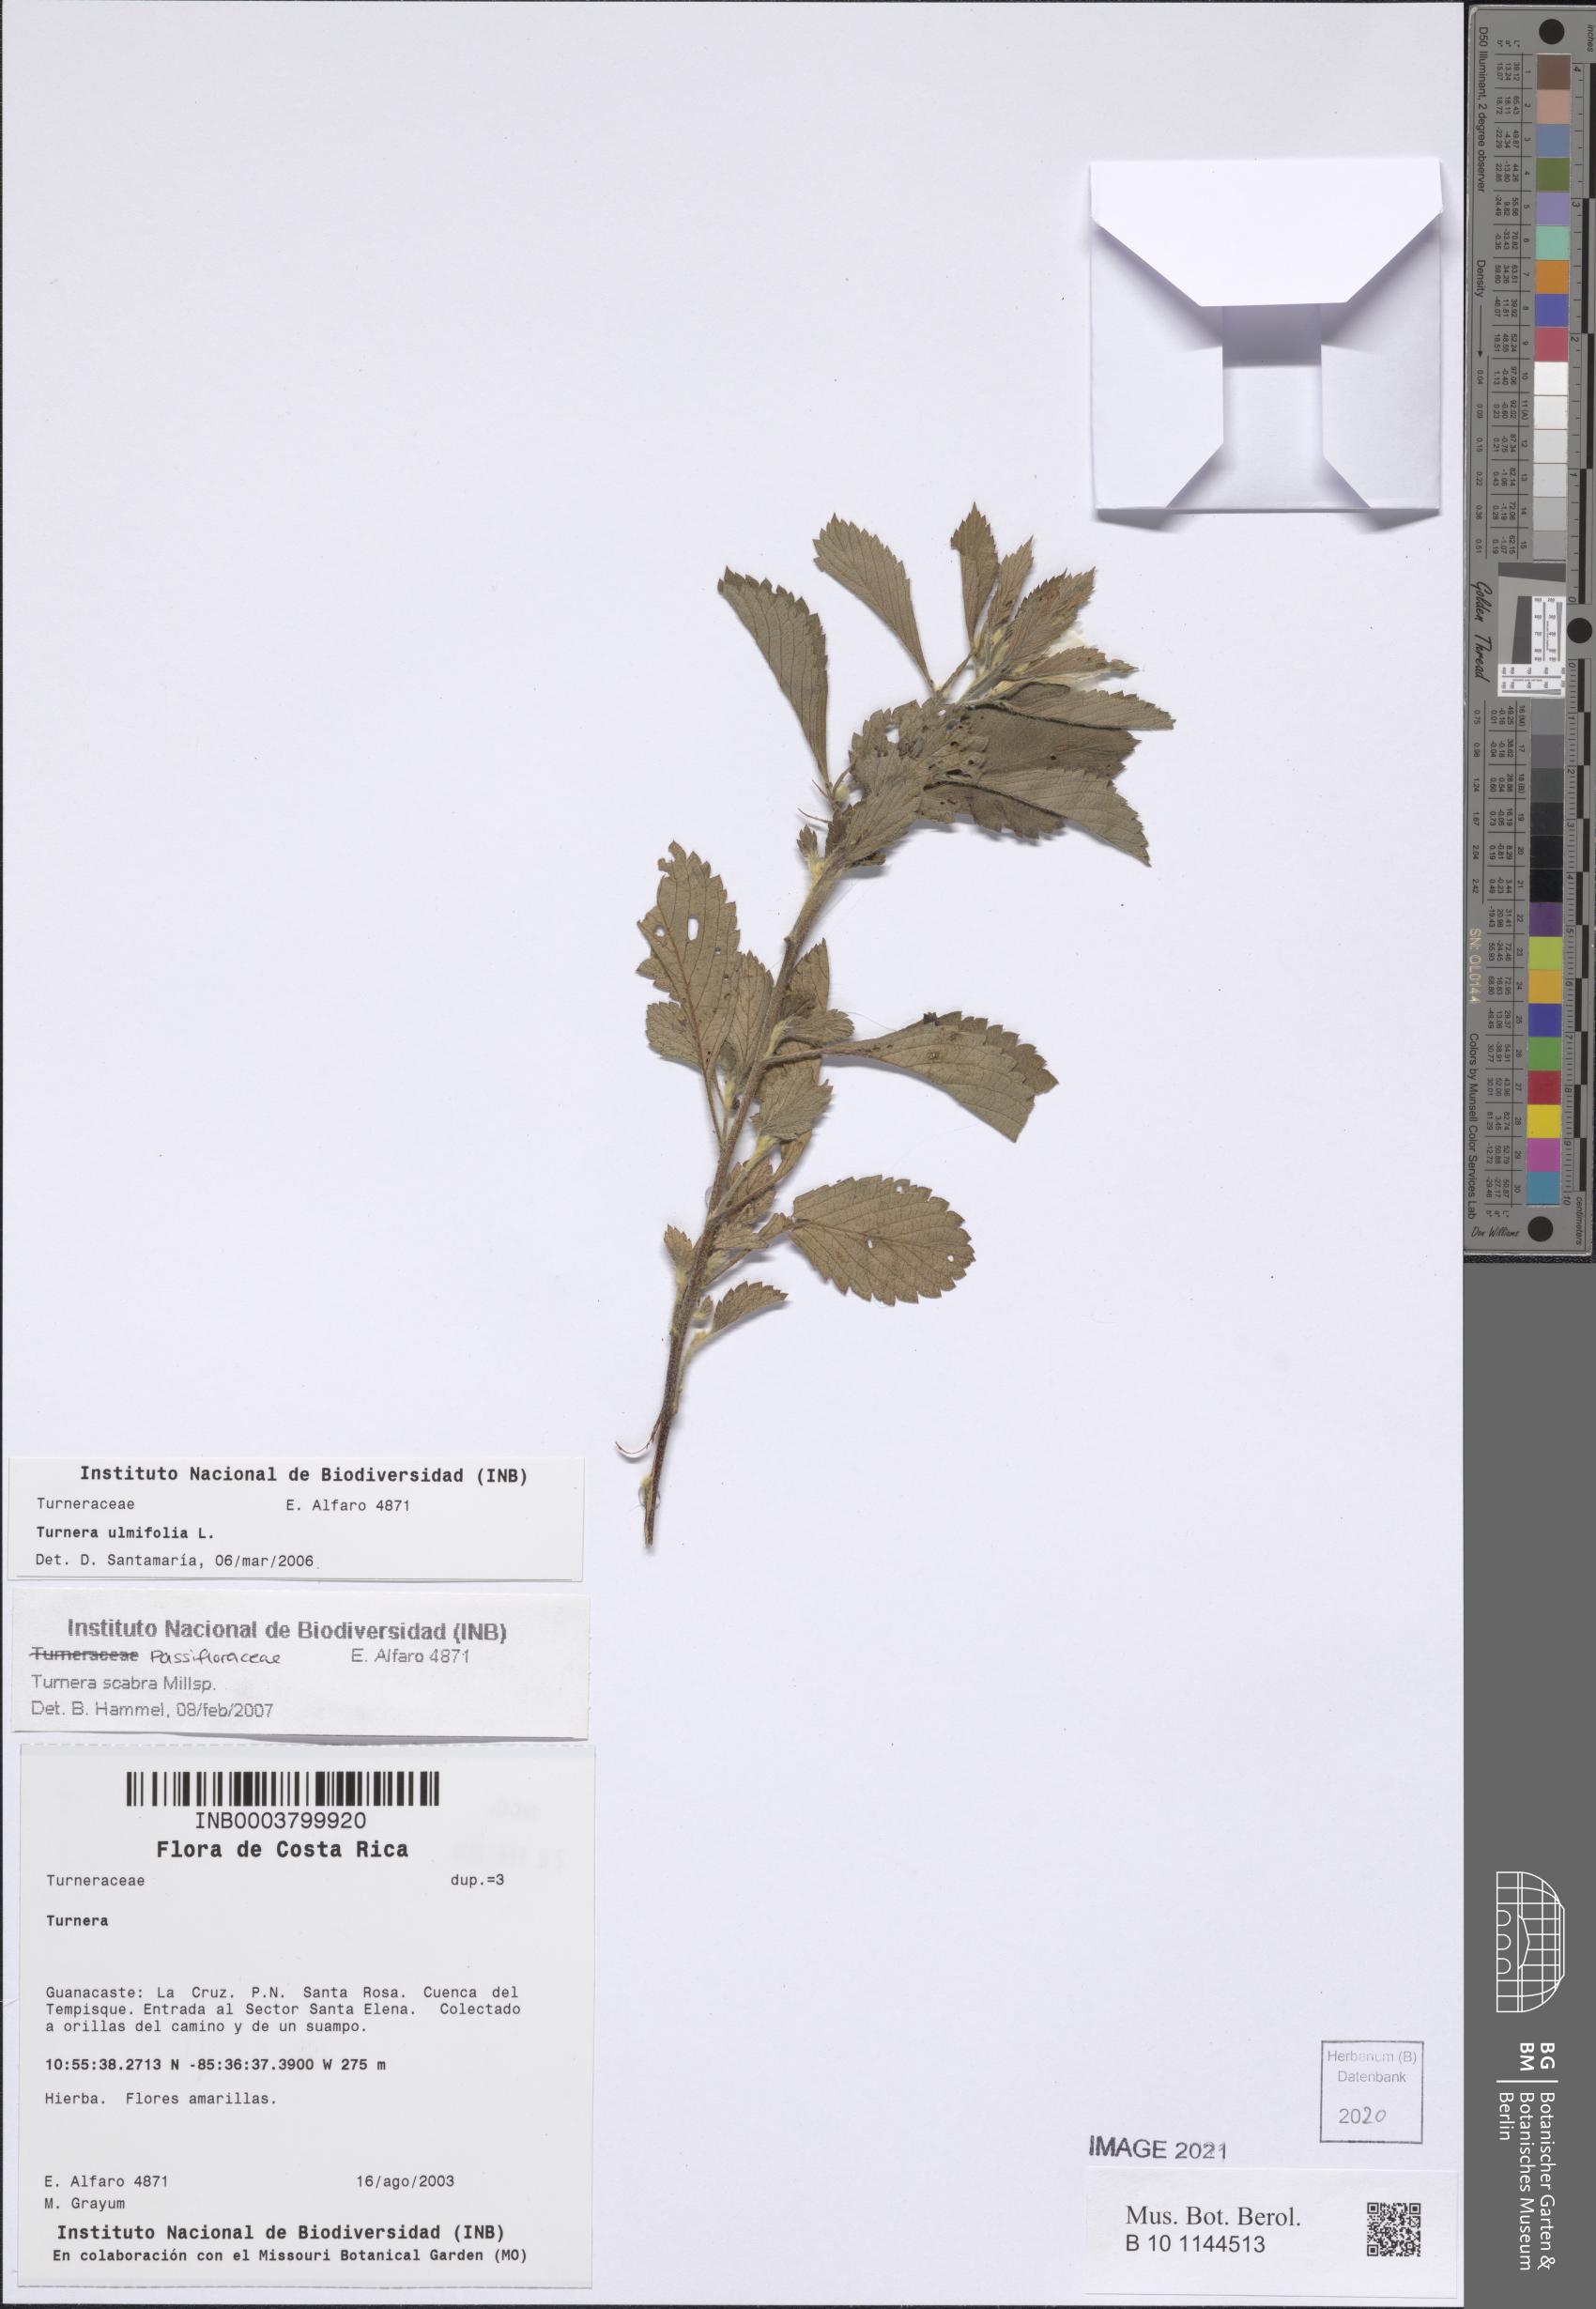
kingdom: Plantae
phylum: Tracheophyta
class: Magnoliopsida
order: Malpighiales
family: Turneraceae
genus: Turnera
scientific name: Turnera scabra
